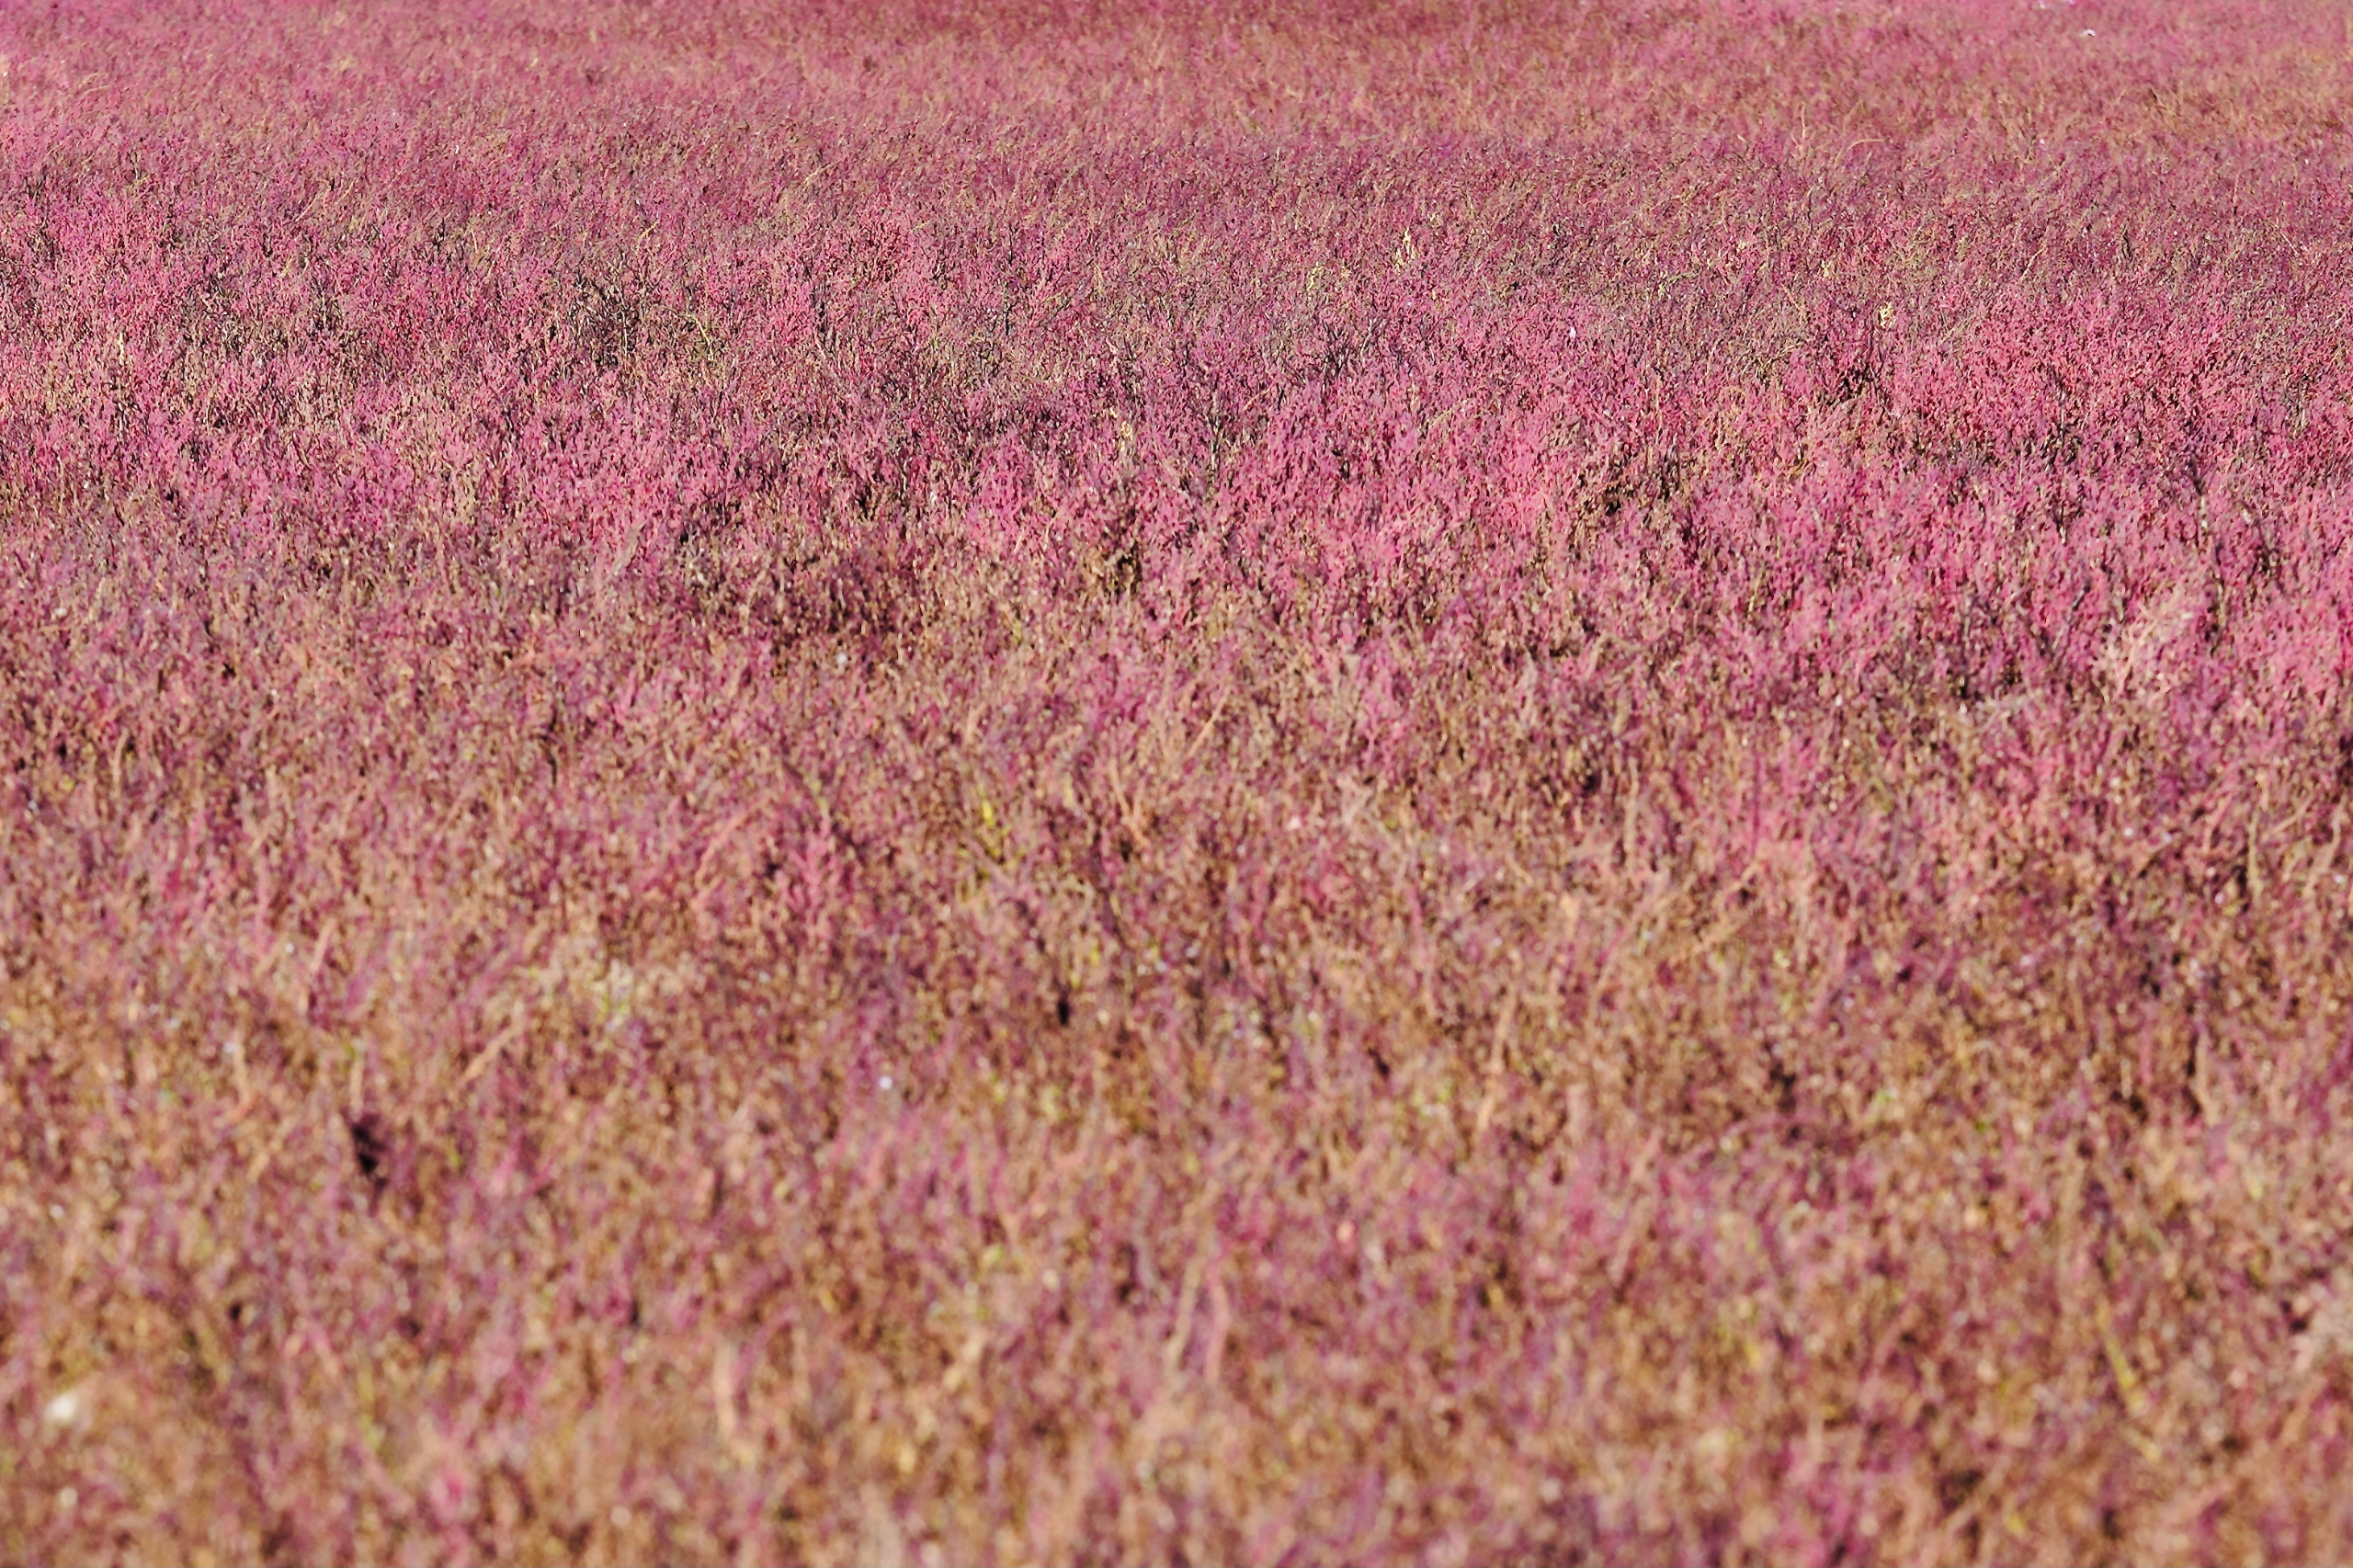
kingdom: Plantae
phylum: Tracheophyta
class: Magnoliopsida
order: Caryophyllales
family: Amaranthaceae
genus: Spirobassia
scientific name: Spirobassia hirsuta
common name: Tangurt
